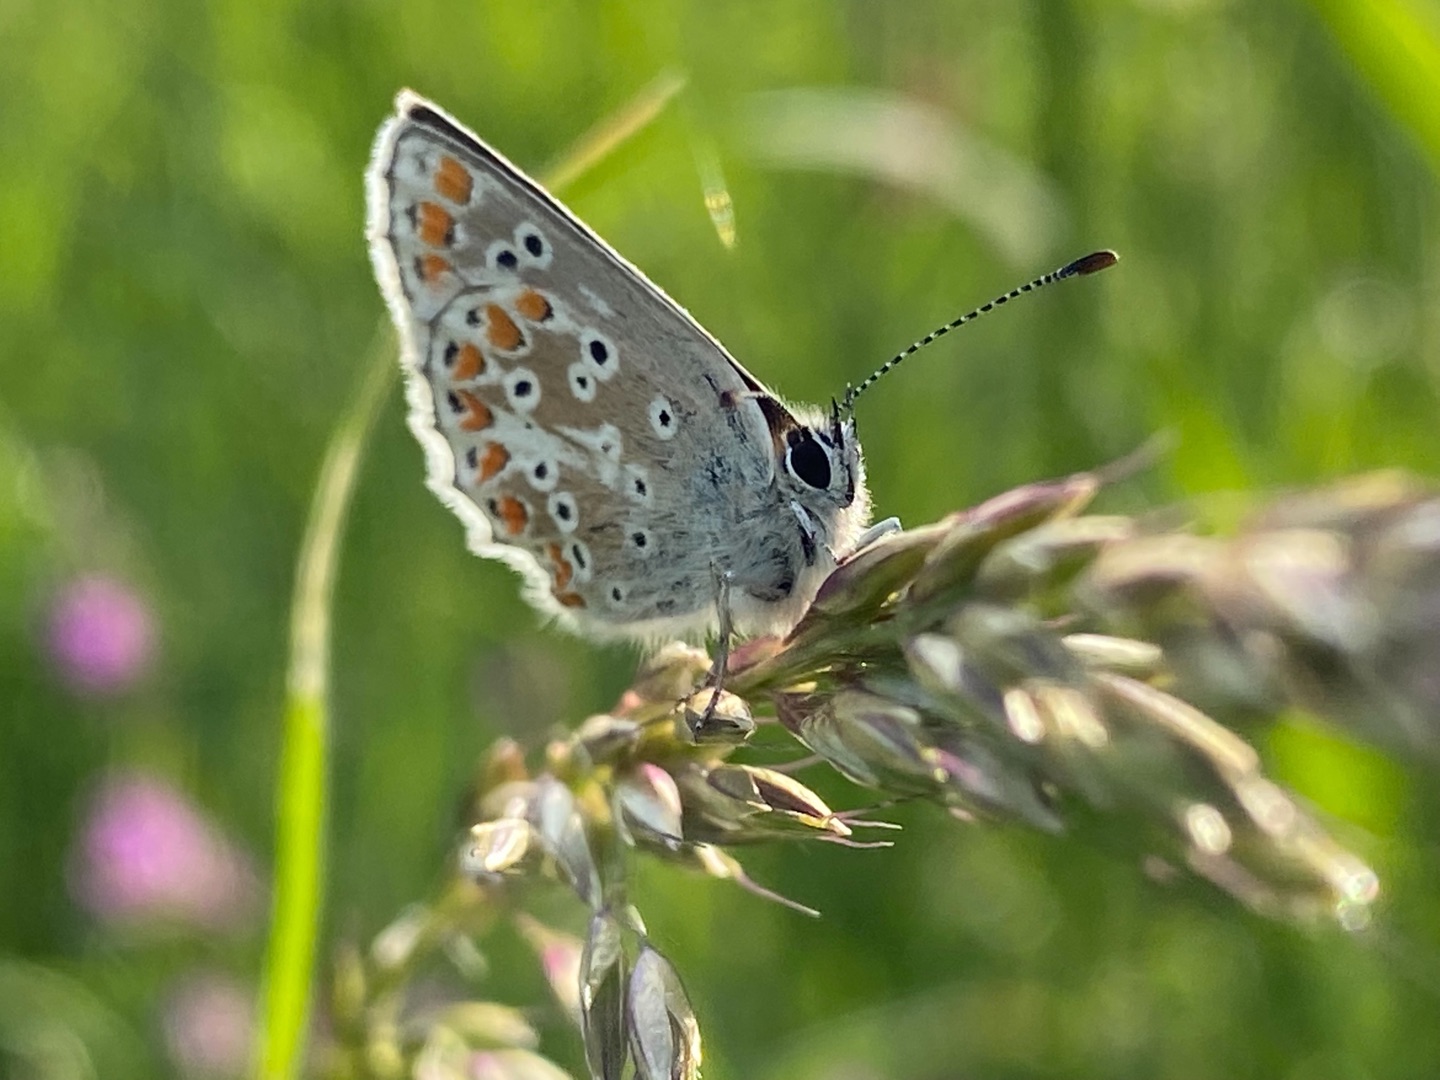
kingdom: Animalia
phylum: Arthropoda
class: Insecta
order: Lepidoptera
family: Lycaenidae
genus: Aricia
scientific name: Aricia agestis
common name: Rødplettet blåfugl
